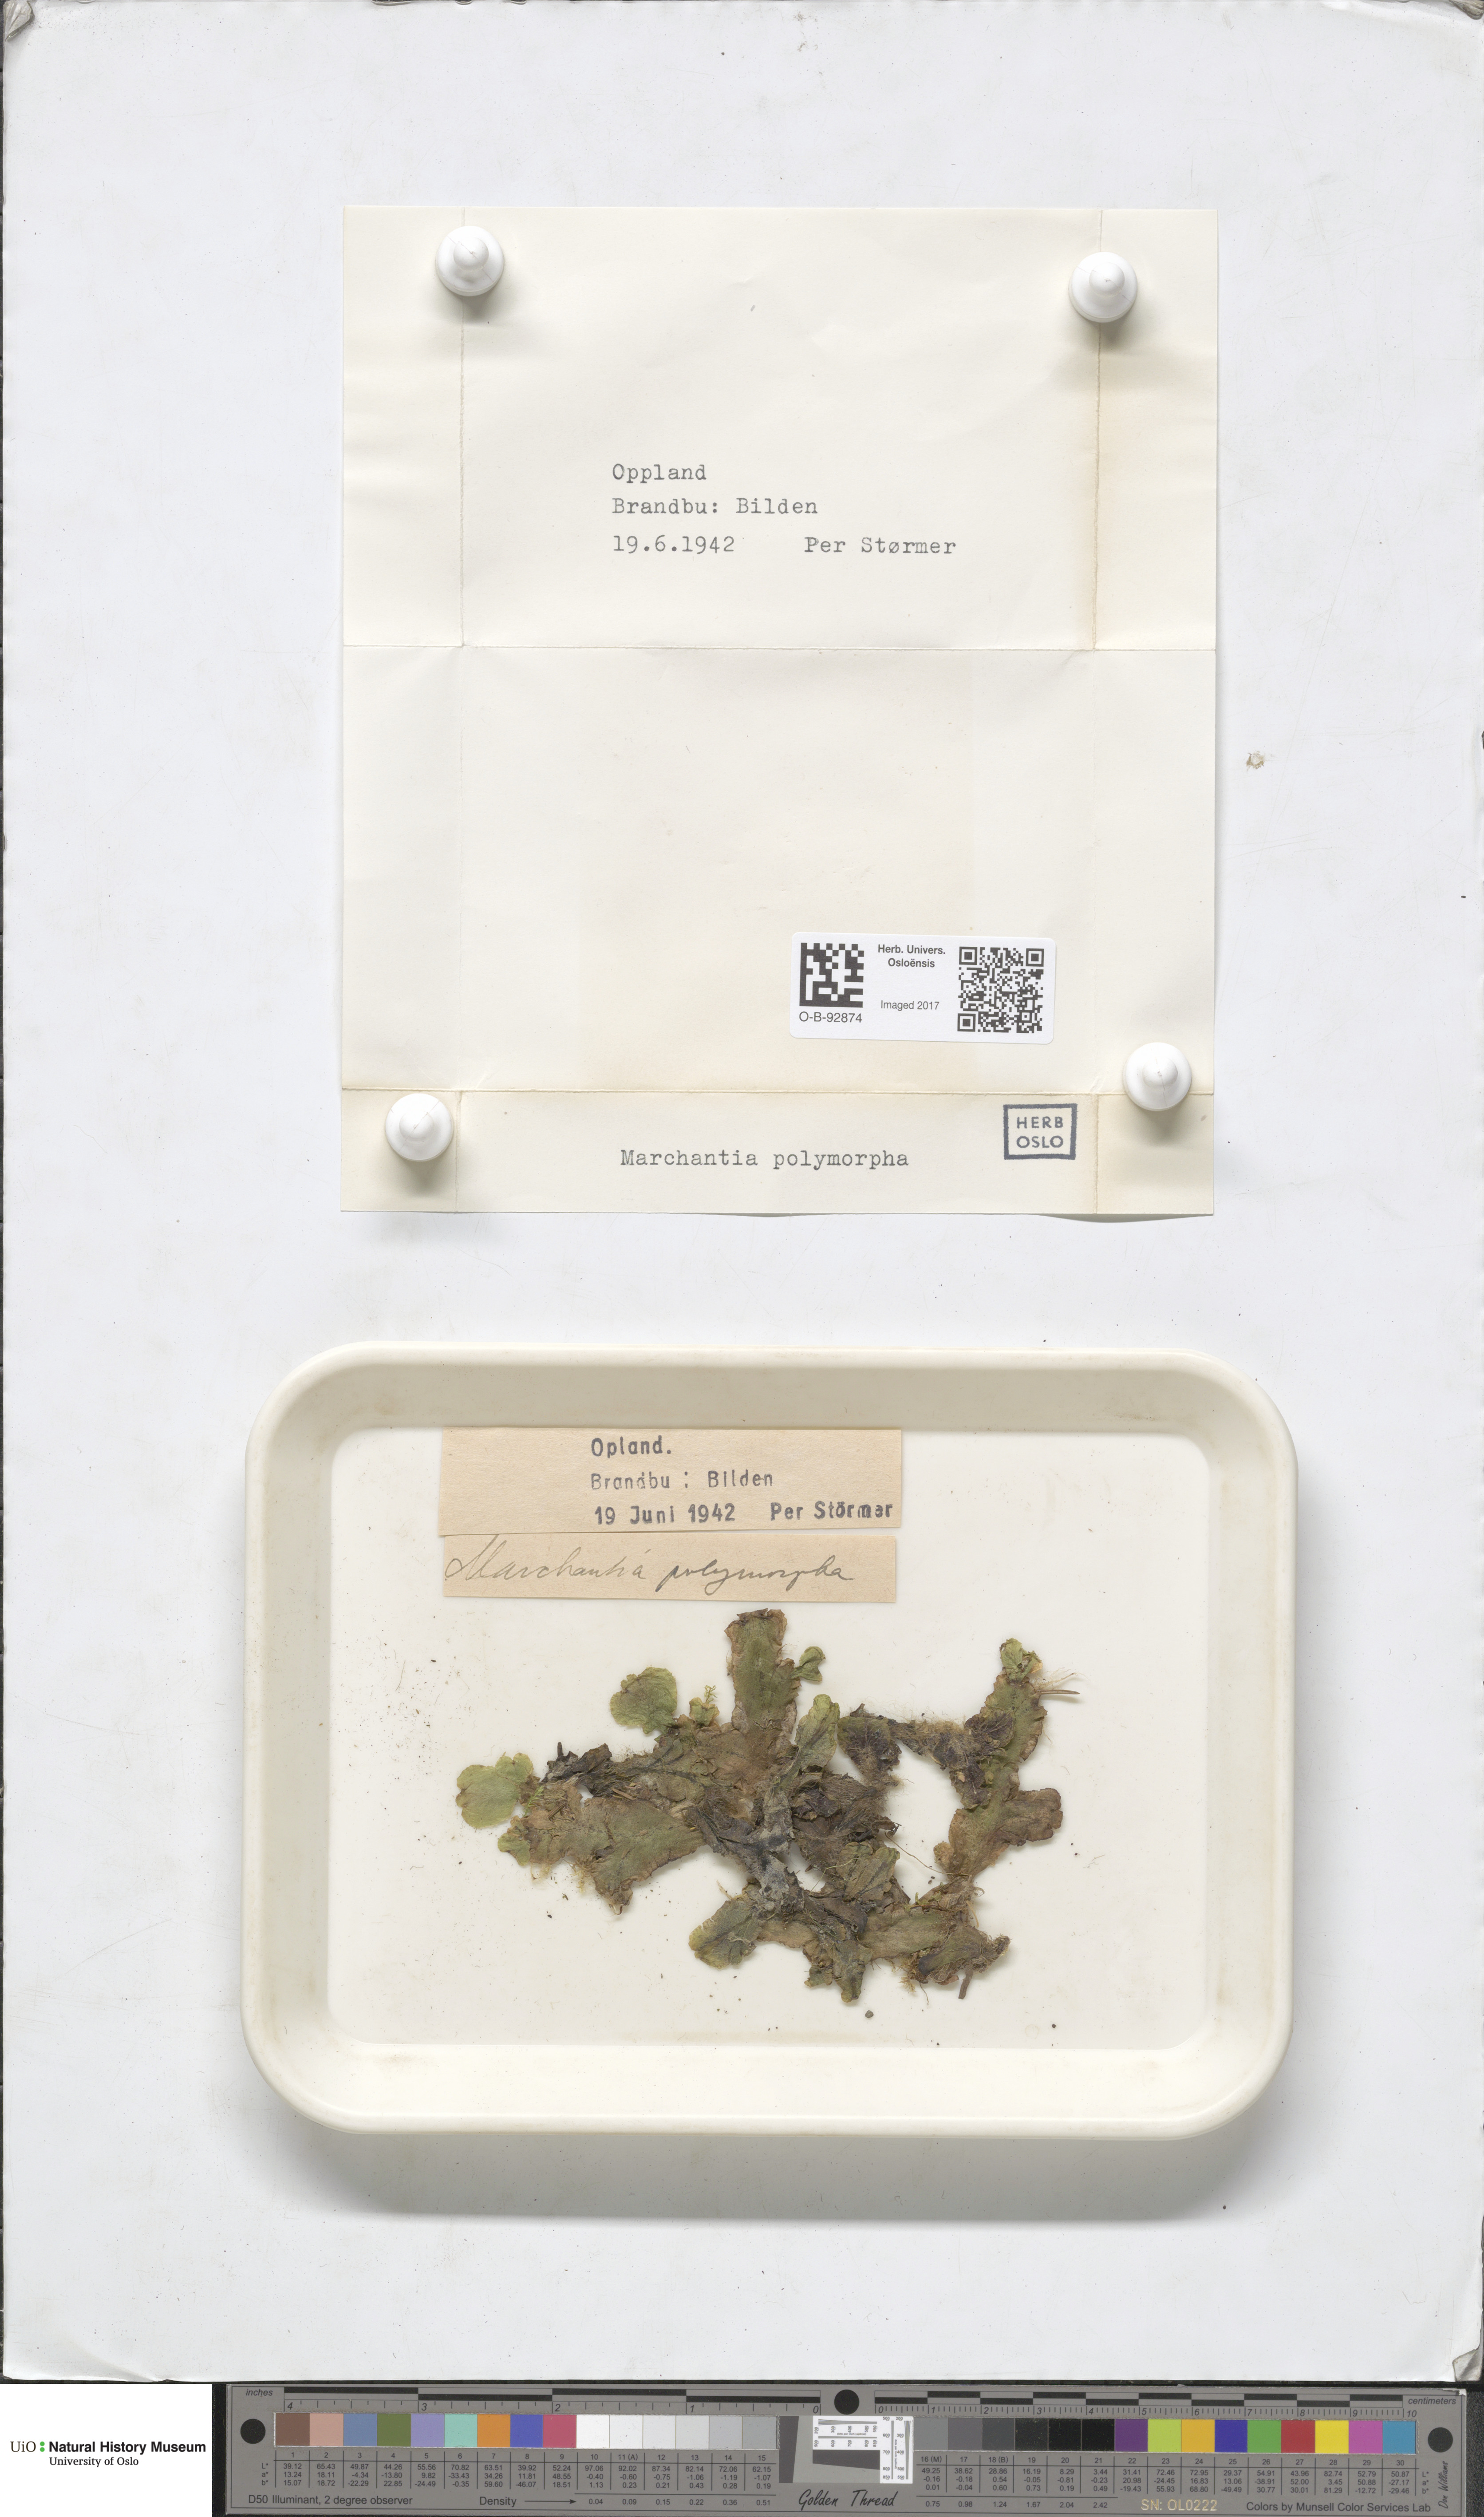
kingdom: Plantae
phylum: Marchantiophyta
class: Marchantiopsida
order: Marchantiales
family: Marchantiaceae
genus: Marchantia
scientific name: Marchantia polymorpha
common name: Common liverwort
